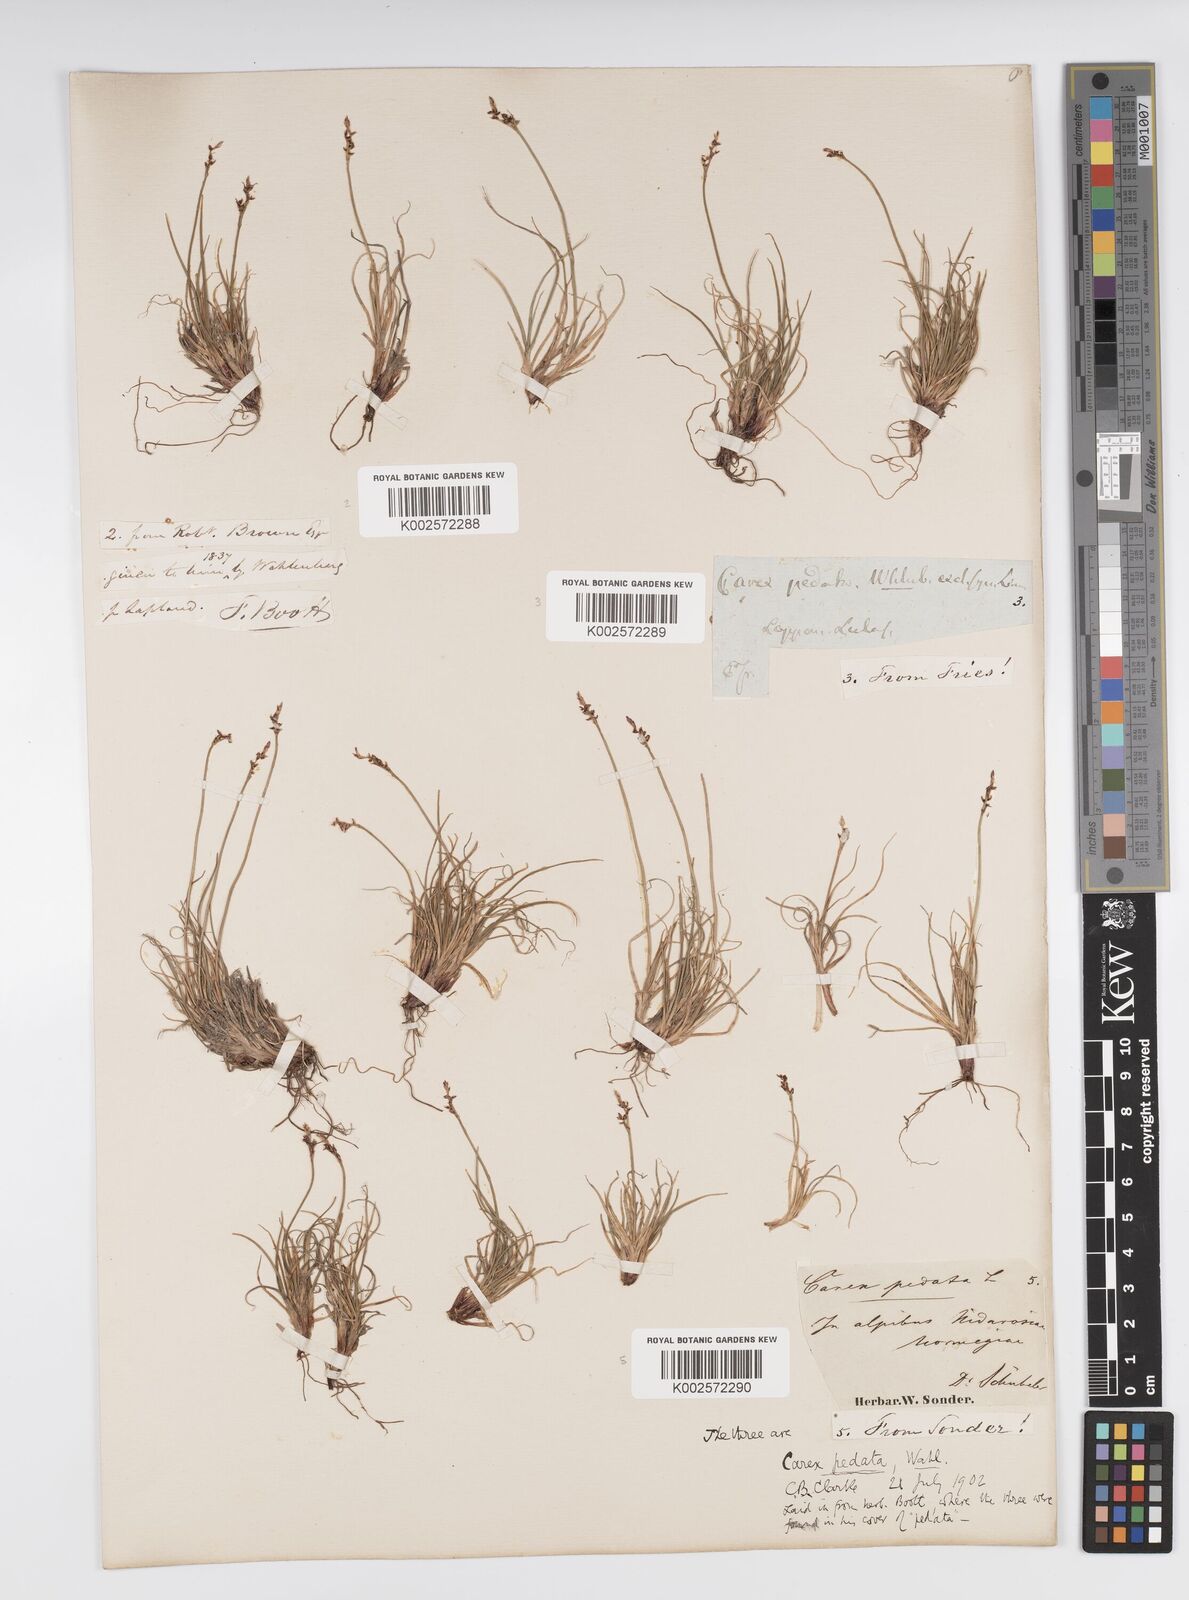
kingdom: Plantae
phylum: Tracheophyta
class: Liliopsida
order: Poales
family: Cyperaceae
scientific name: Cyperaceae
